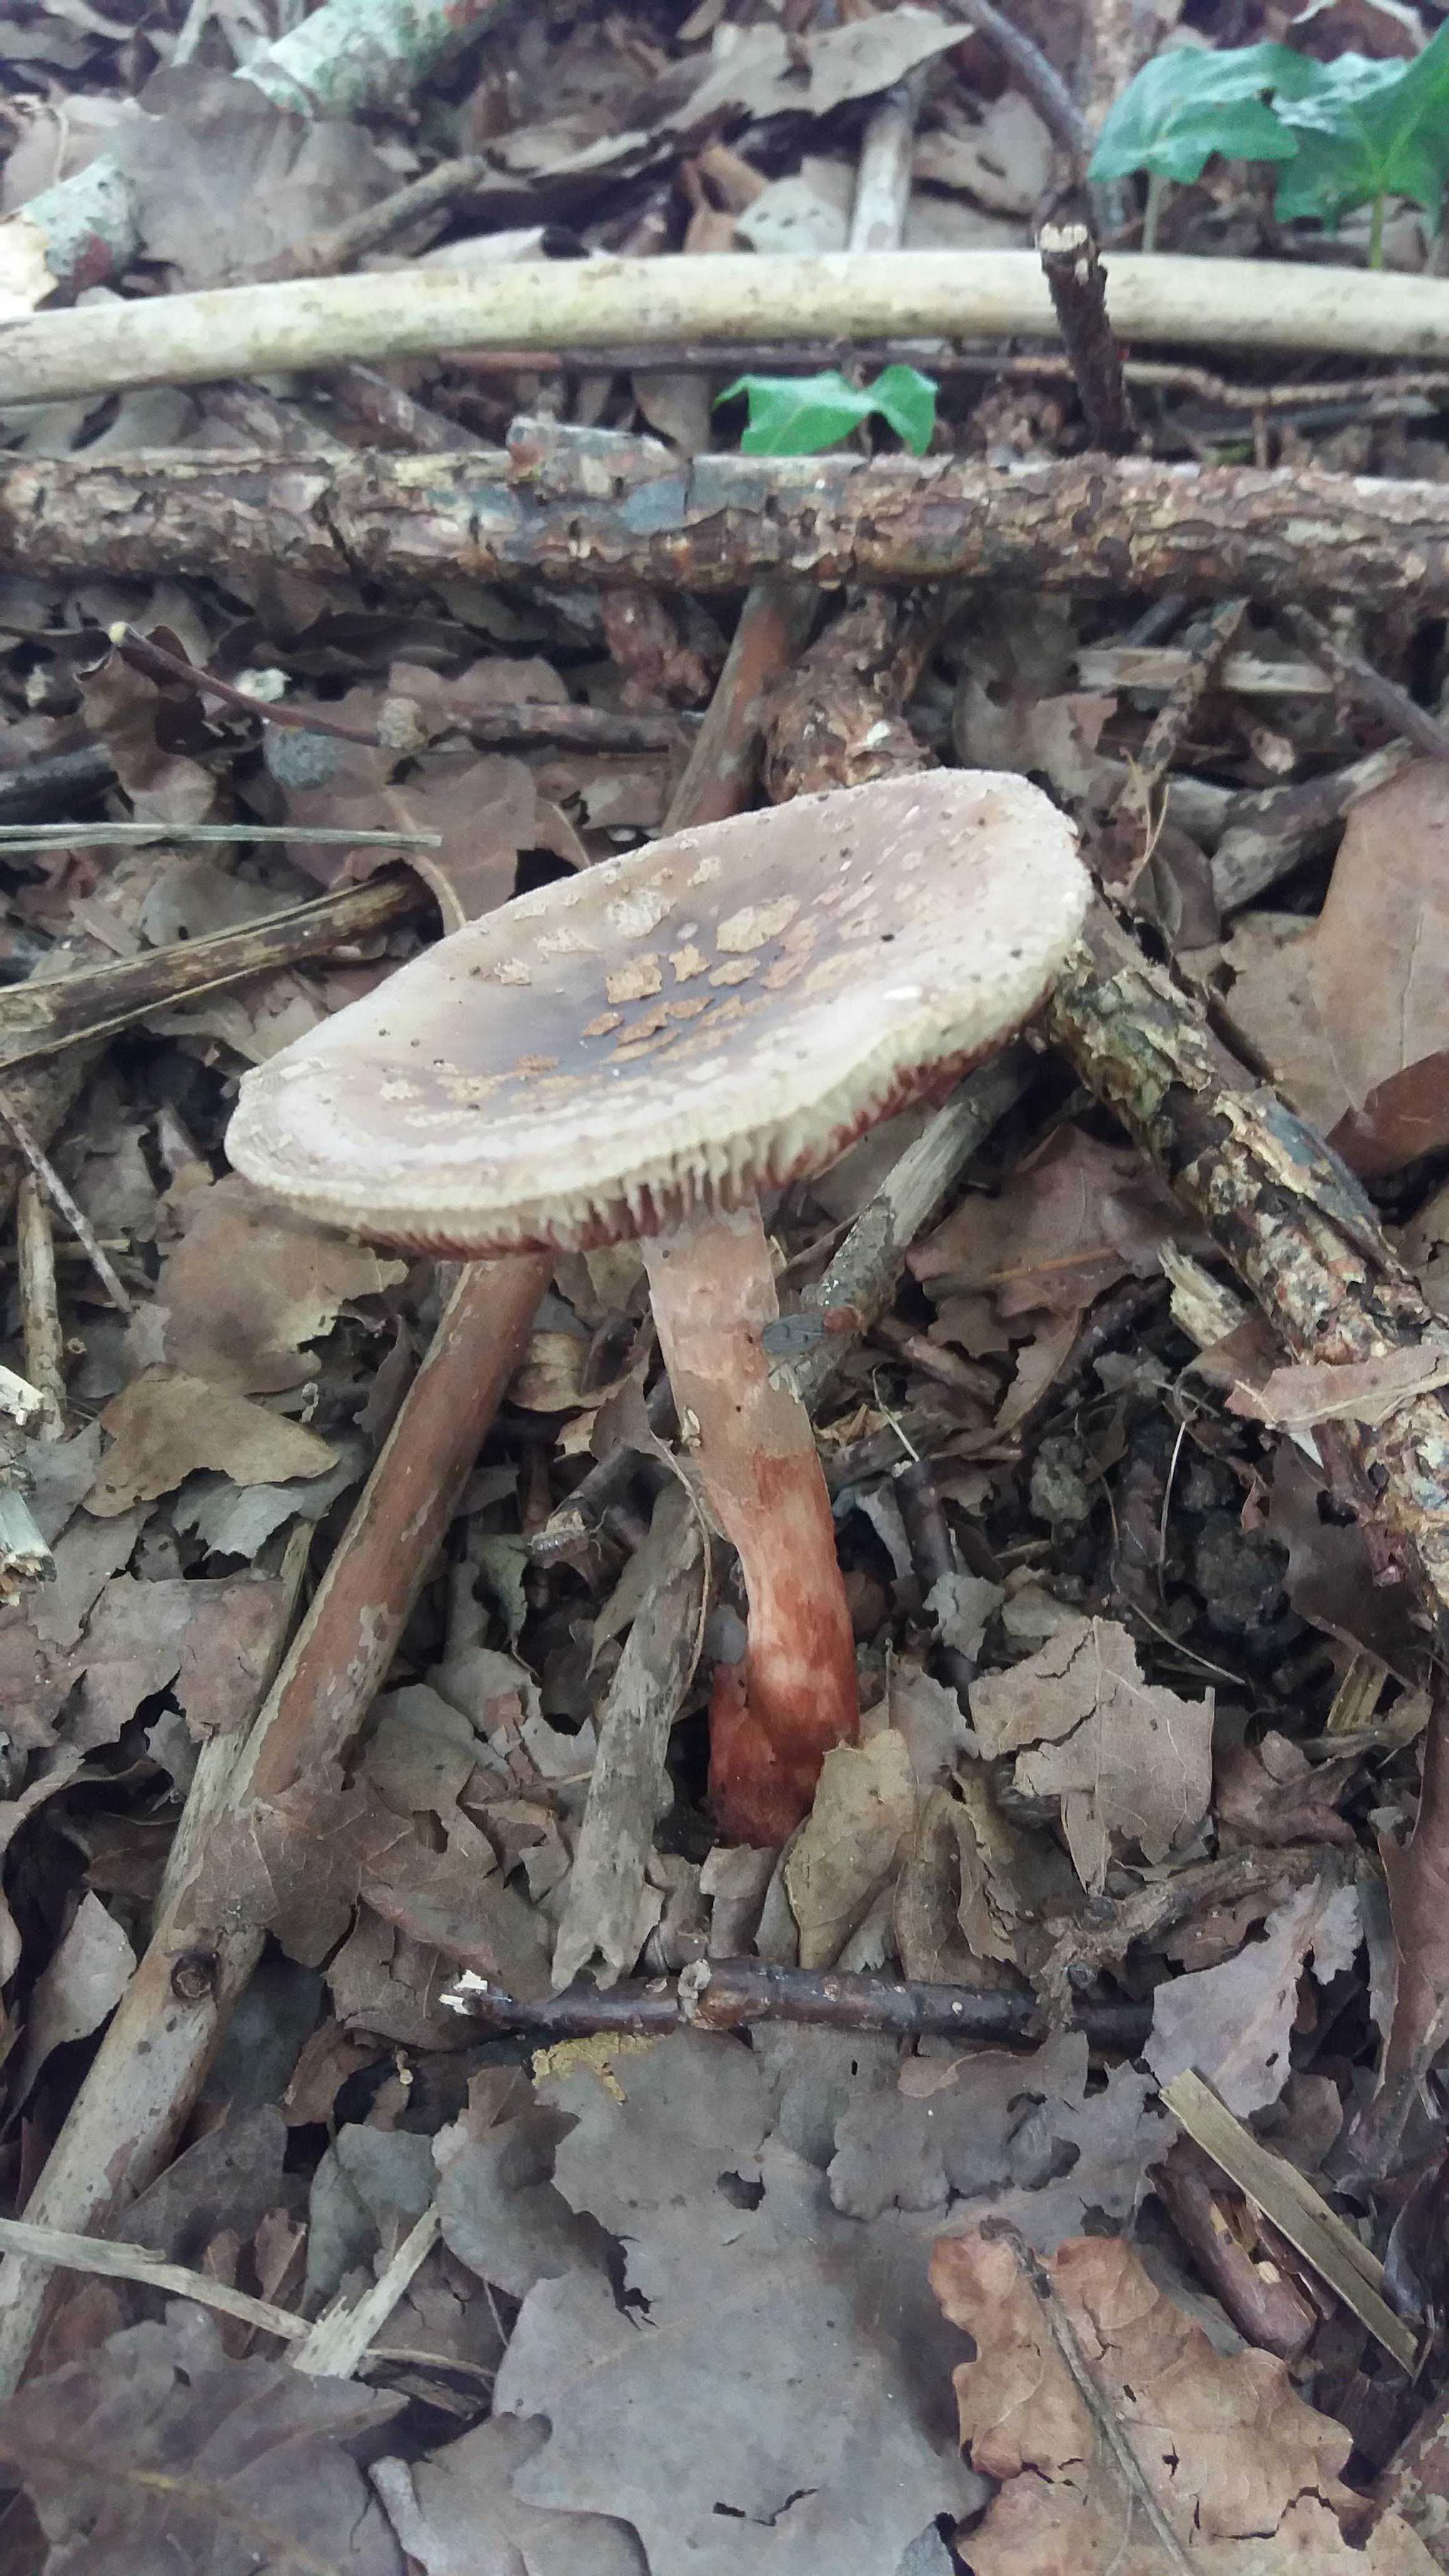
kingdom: Fungi
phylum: Basidiomycota
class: Agaricomycetes
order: Agaricales
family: Amanitaceae
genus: Amanita
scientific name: Amanita rubescens
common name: rødmende fluesvamp
